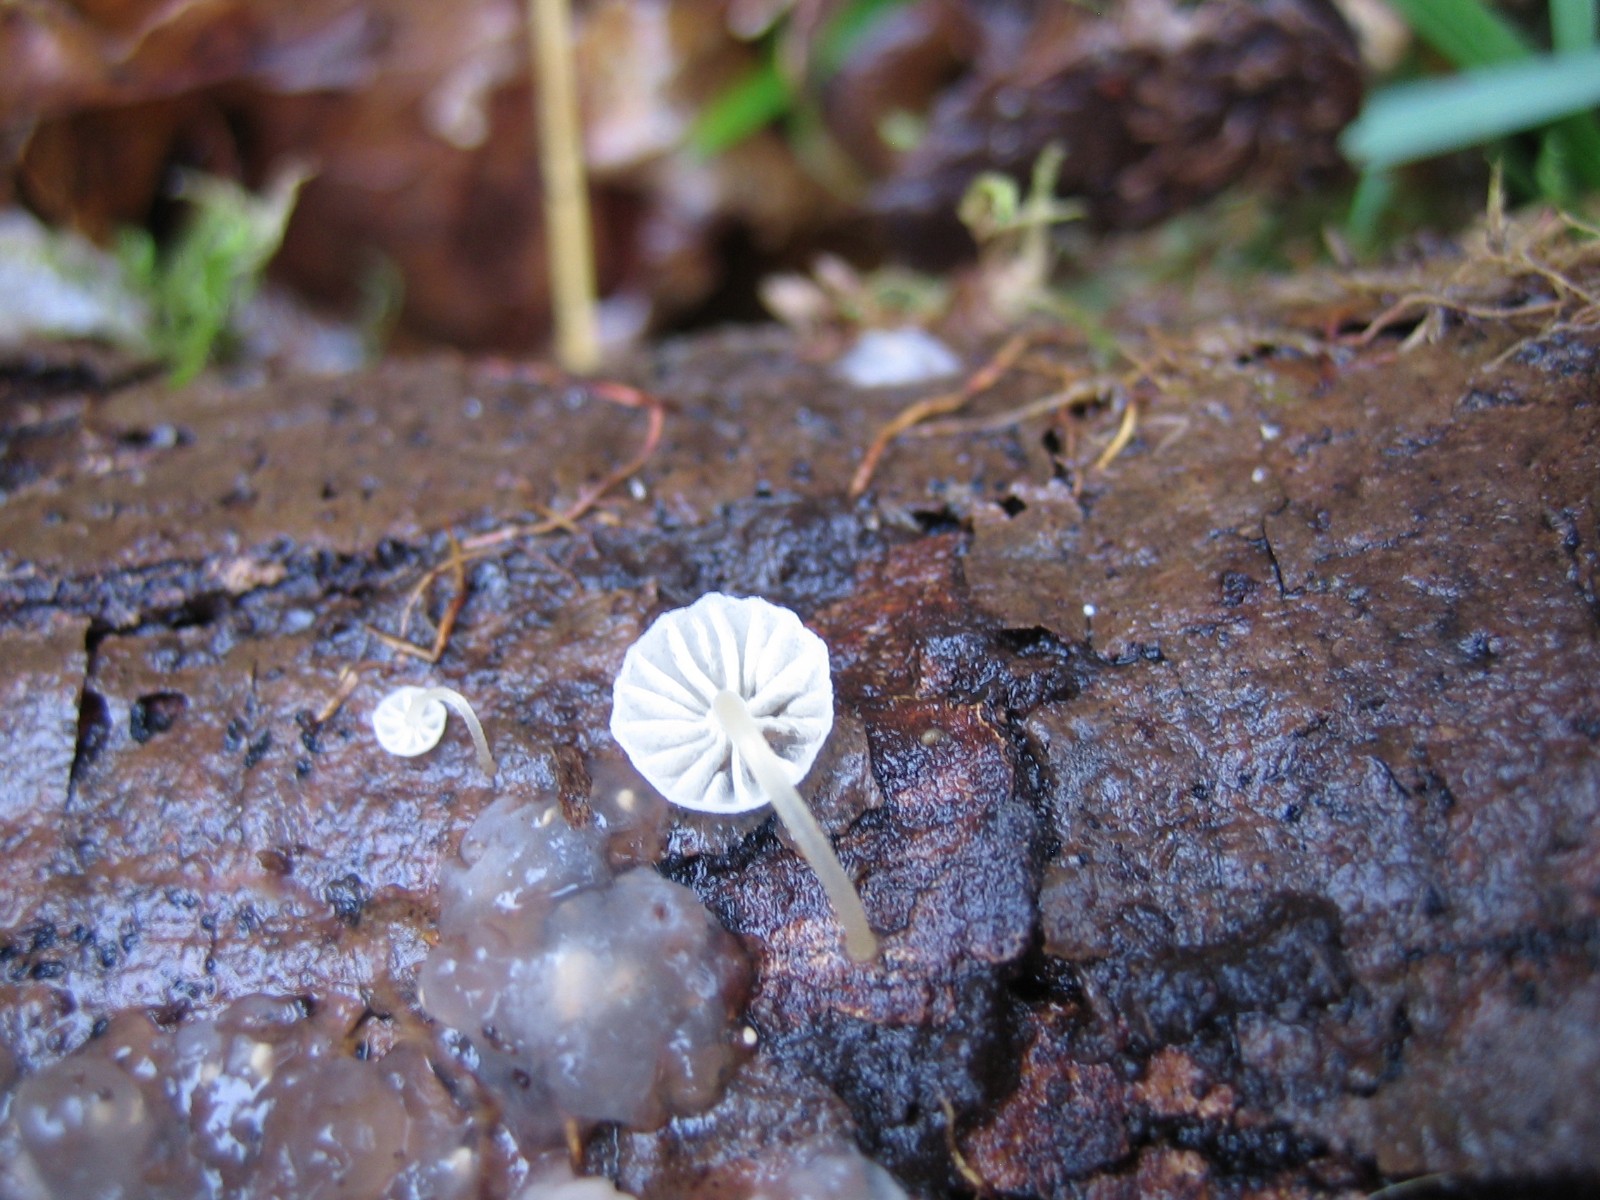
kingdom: Fungi
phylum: Basidiomycota
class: Agaricomycetes
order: Agaricales
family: Mycenaceae
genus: Mycena
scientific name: Mycena
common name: huesvamp
